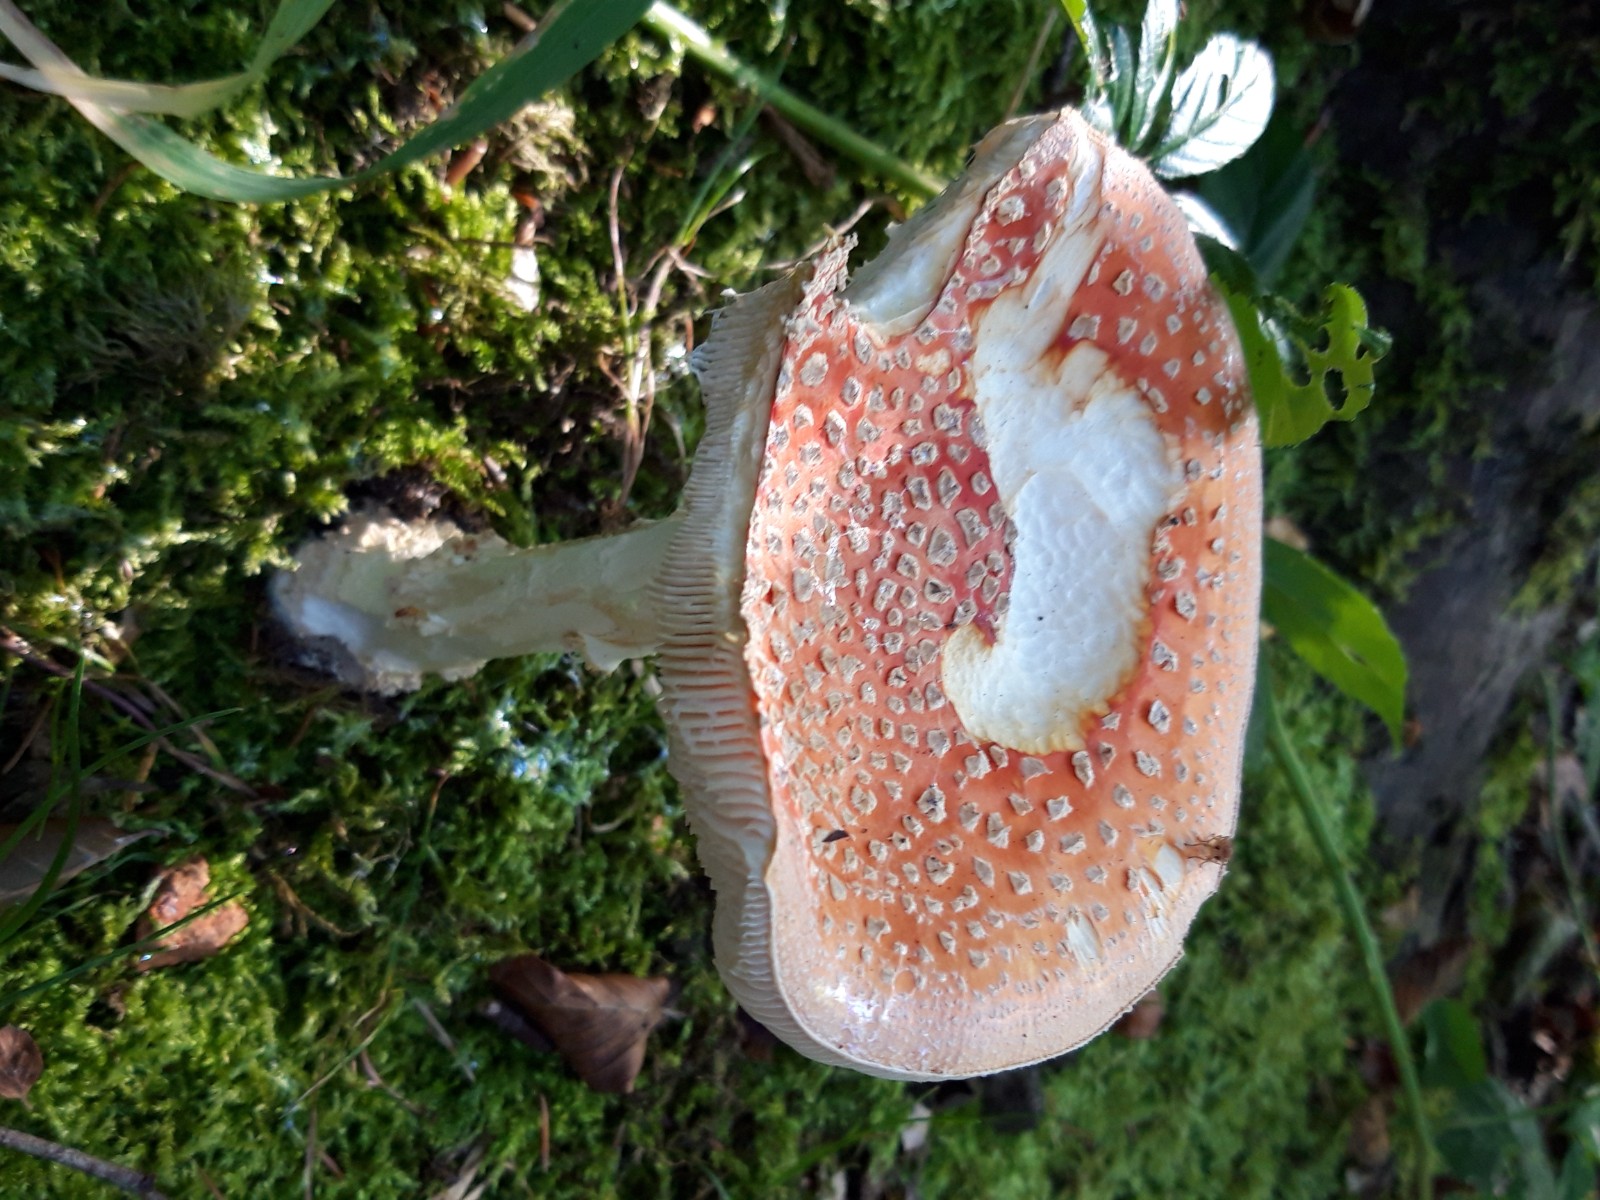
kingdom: Fungi
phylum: Basidiomycota
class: Agaricomycetes
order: Agaricales
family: Amanitaceae
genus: Amanita
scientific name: Amanita muscaria
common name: rød fluesvamp
